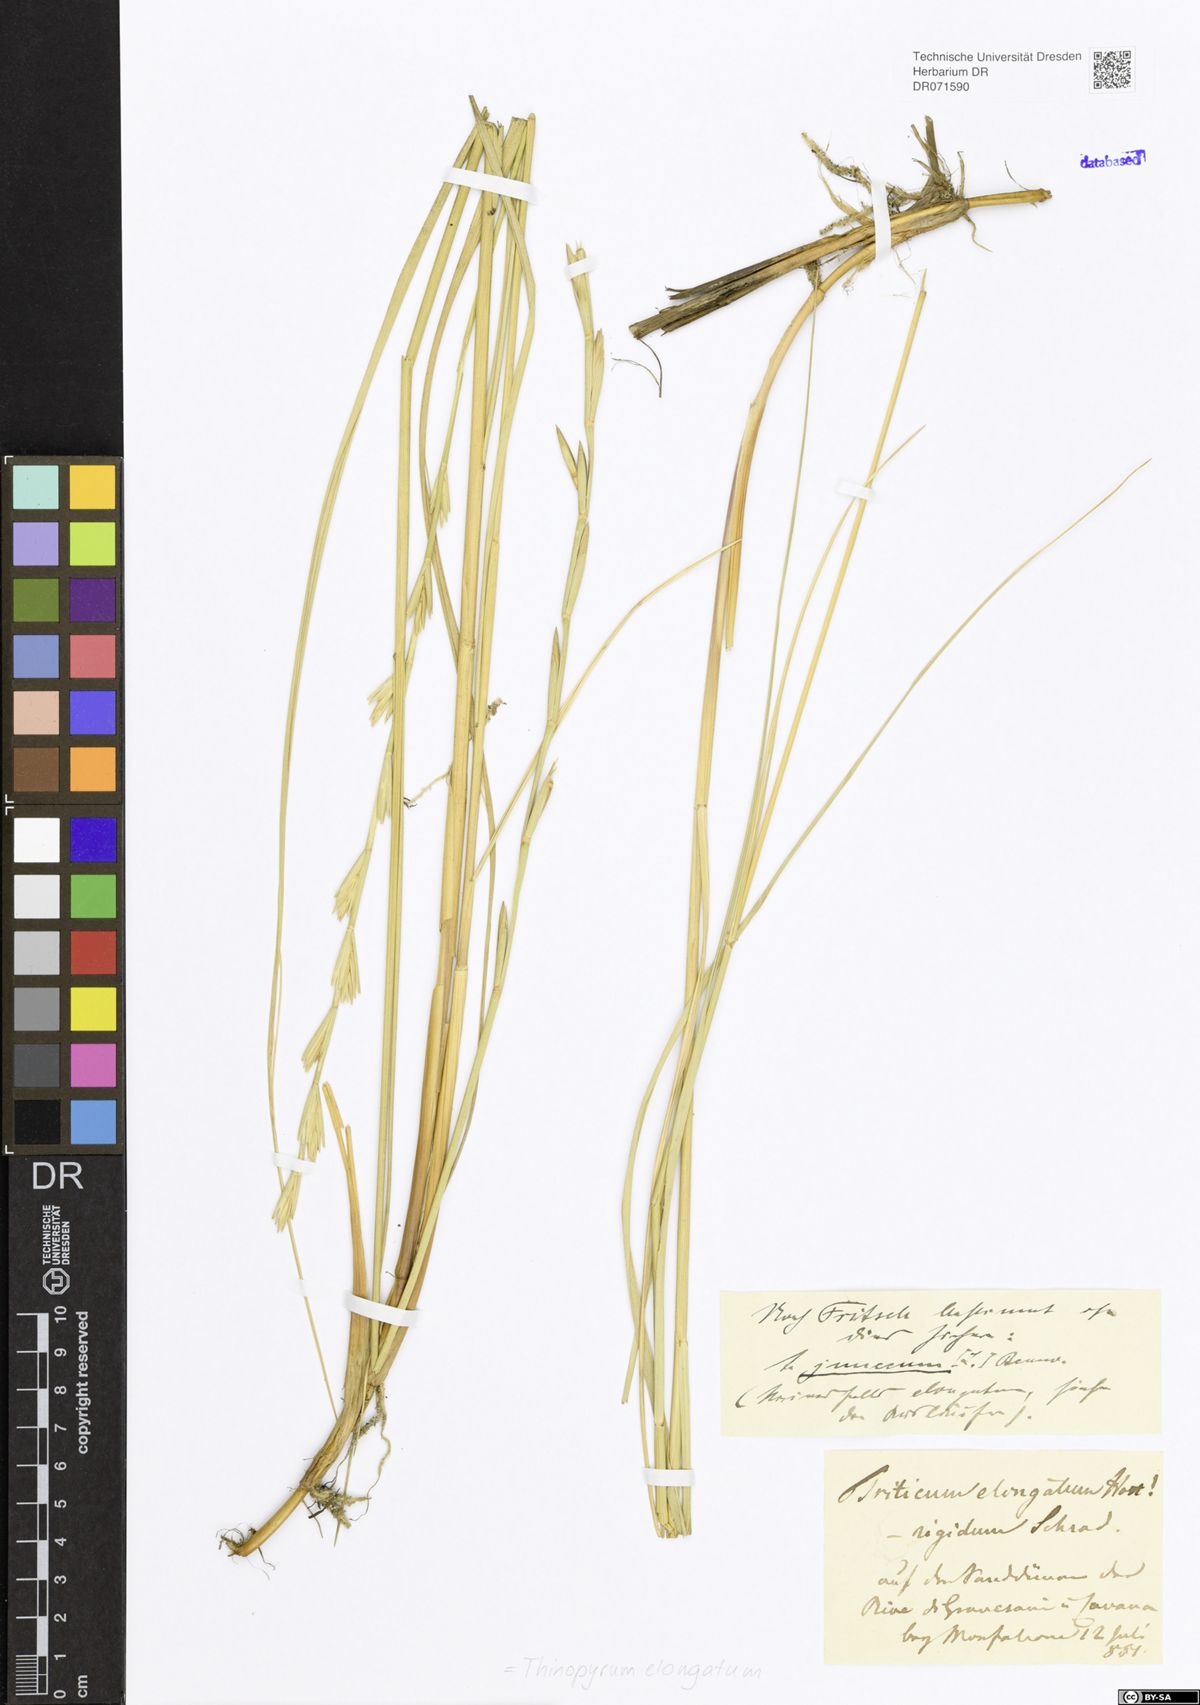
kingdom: Plantae
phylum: Tracheophyta
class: Liliopsida
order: Poales
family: Poaceae
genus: Thinopyrum
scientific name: Thinopyrum elongatum
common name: Tall wheatgrass
